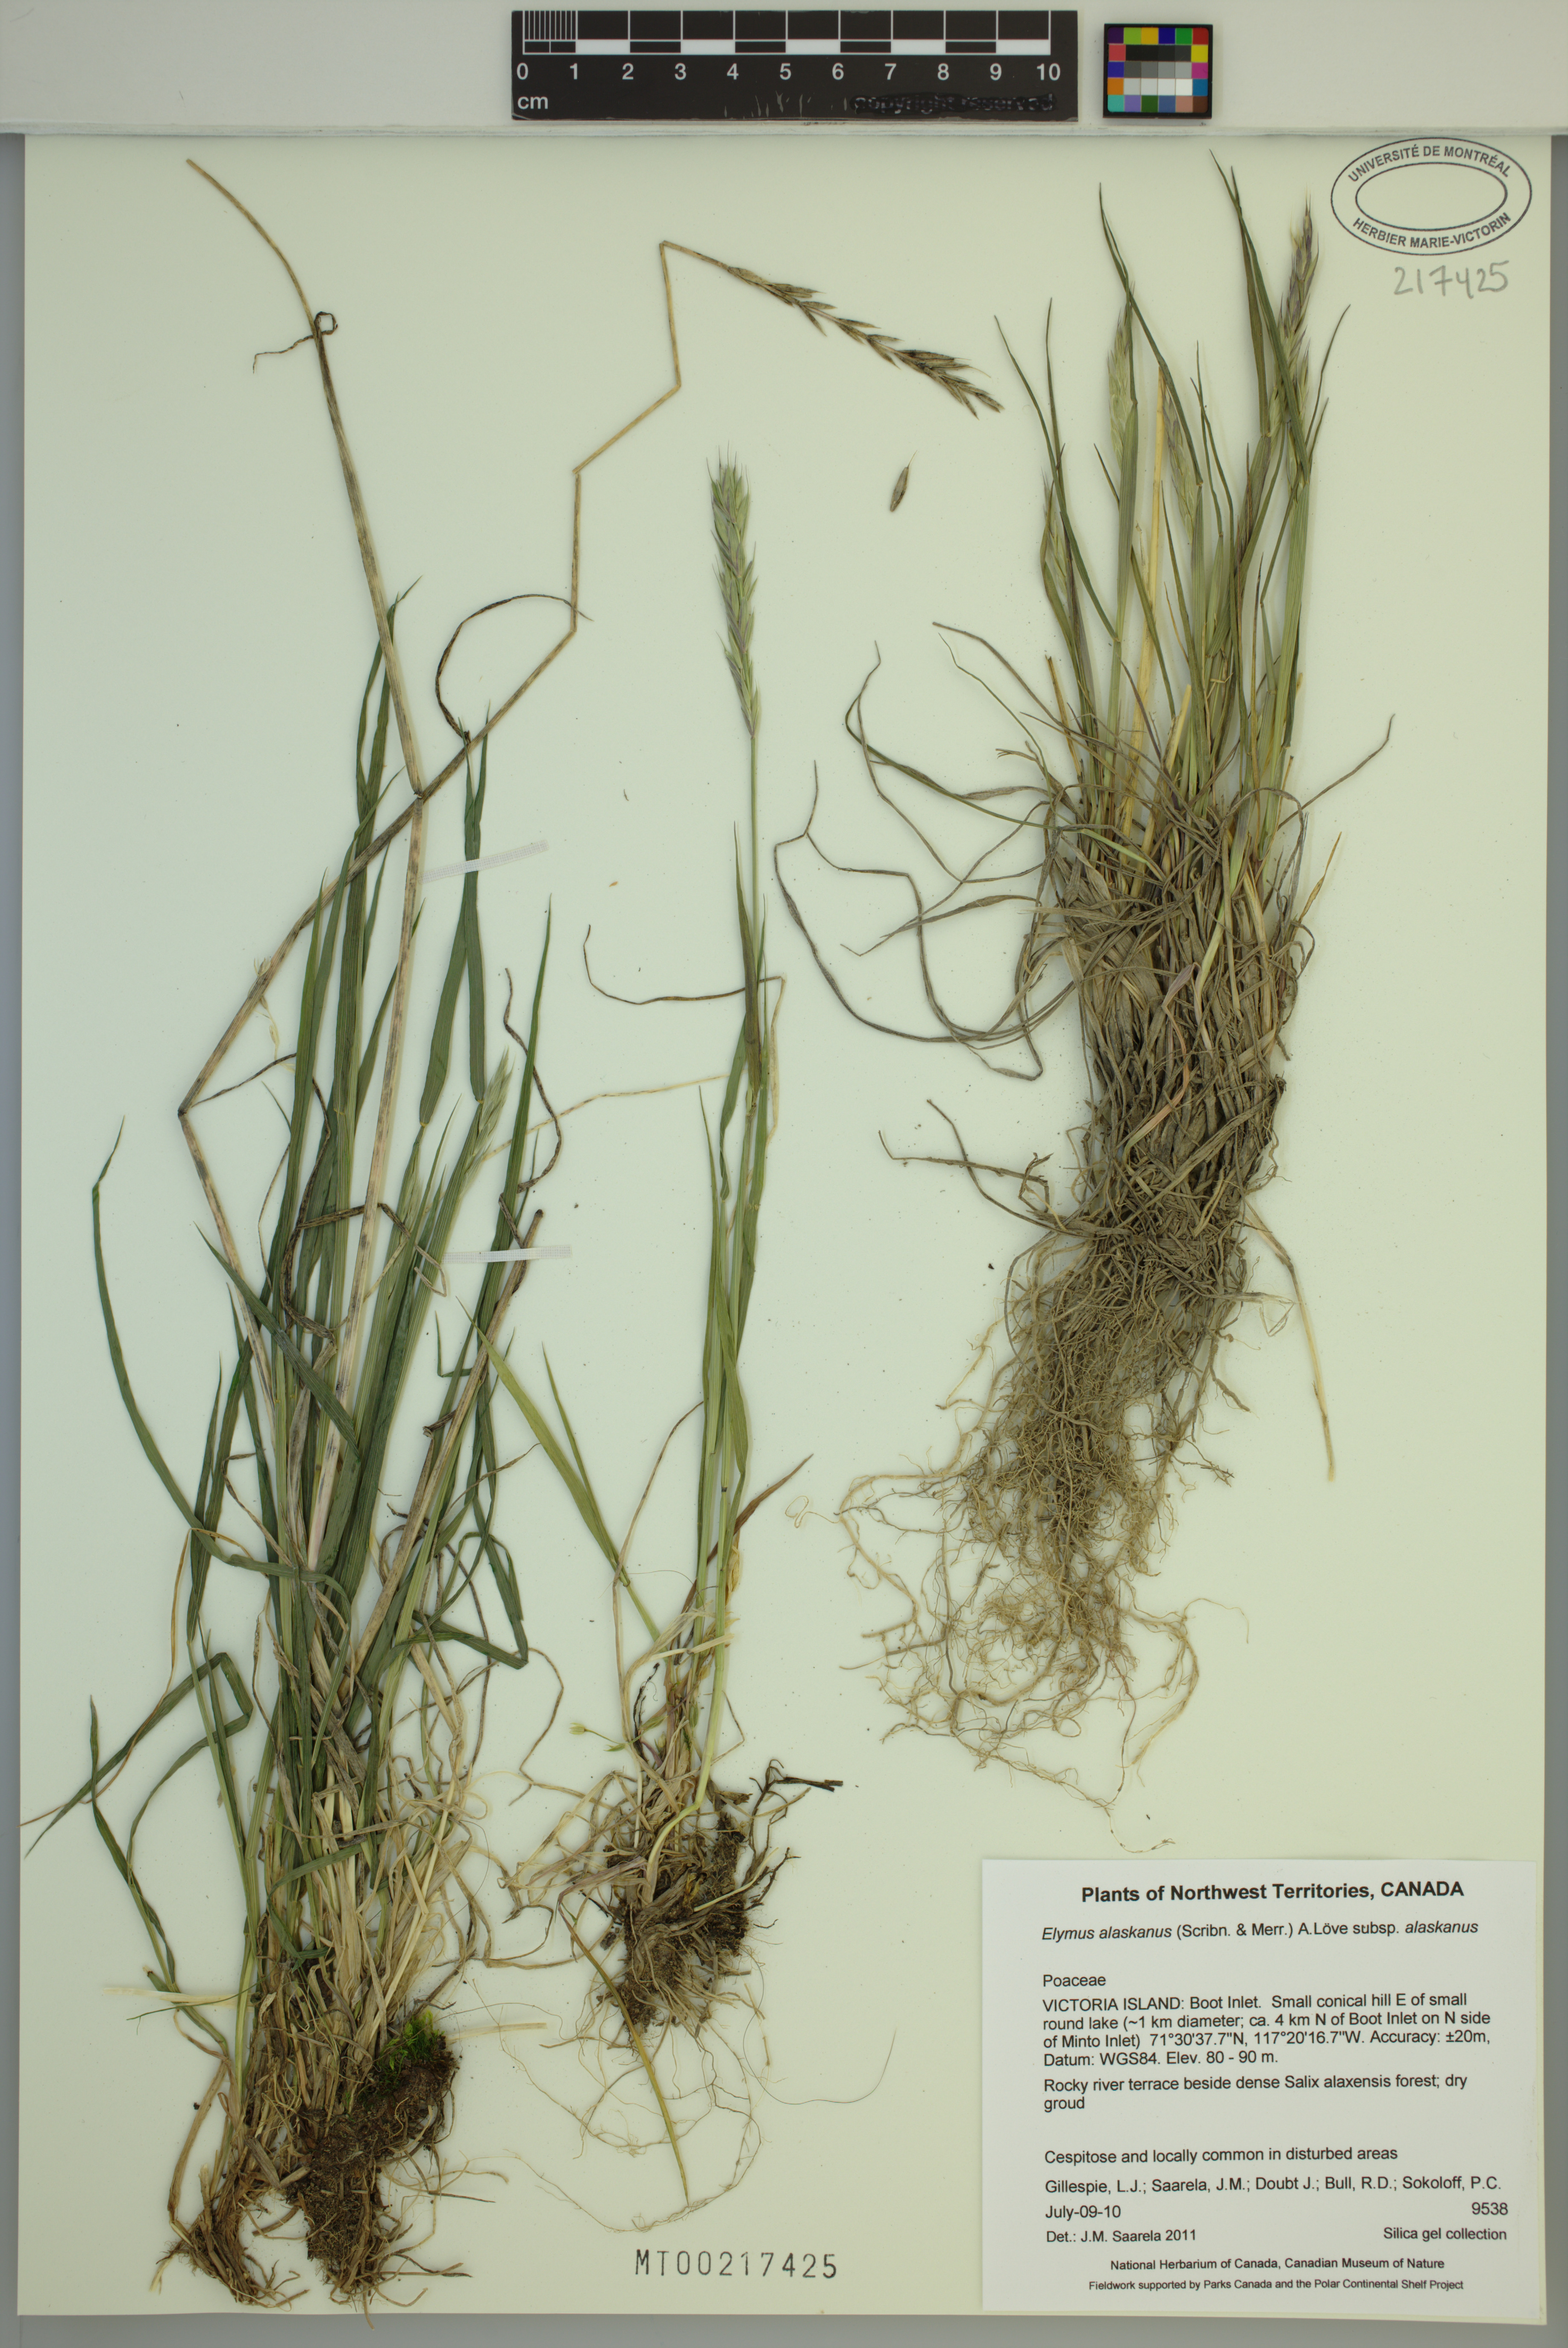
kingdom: Plantae
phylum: Tracheophyta
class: Liliopsida
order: Poales
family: Poaceae
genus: Elymus
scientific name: Elymus alaskanus
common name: Alaska wheatgrass
